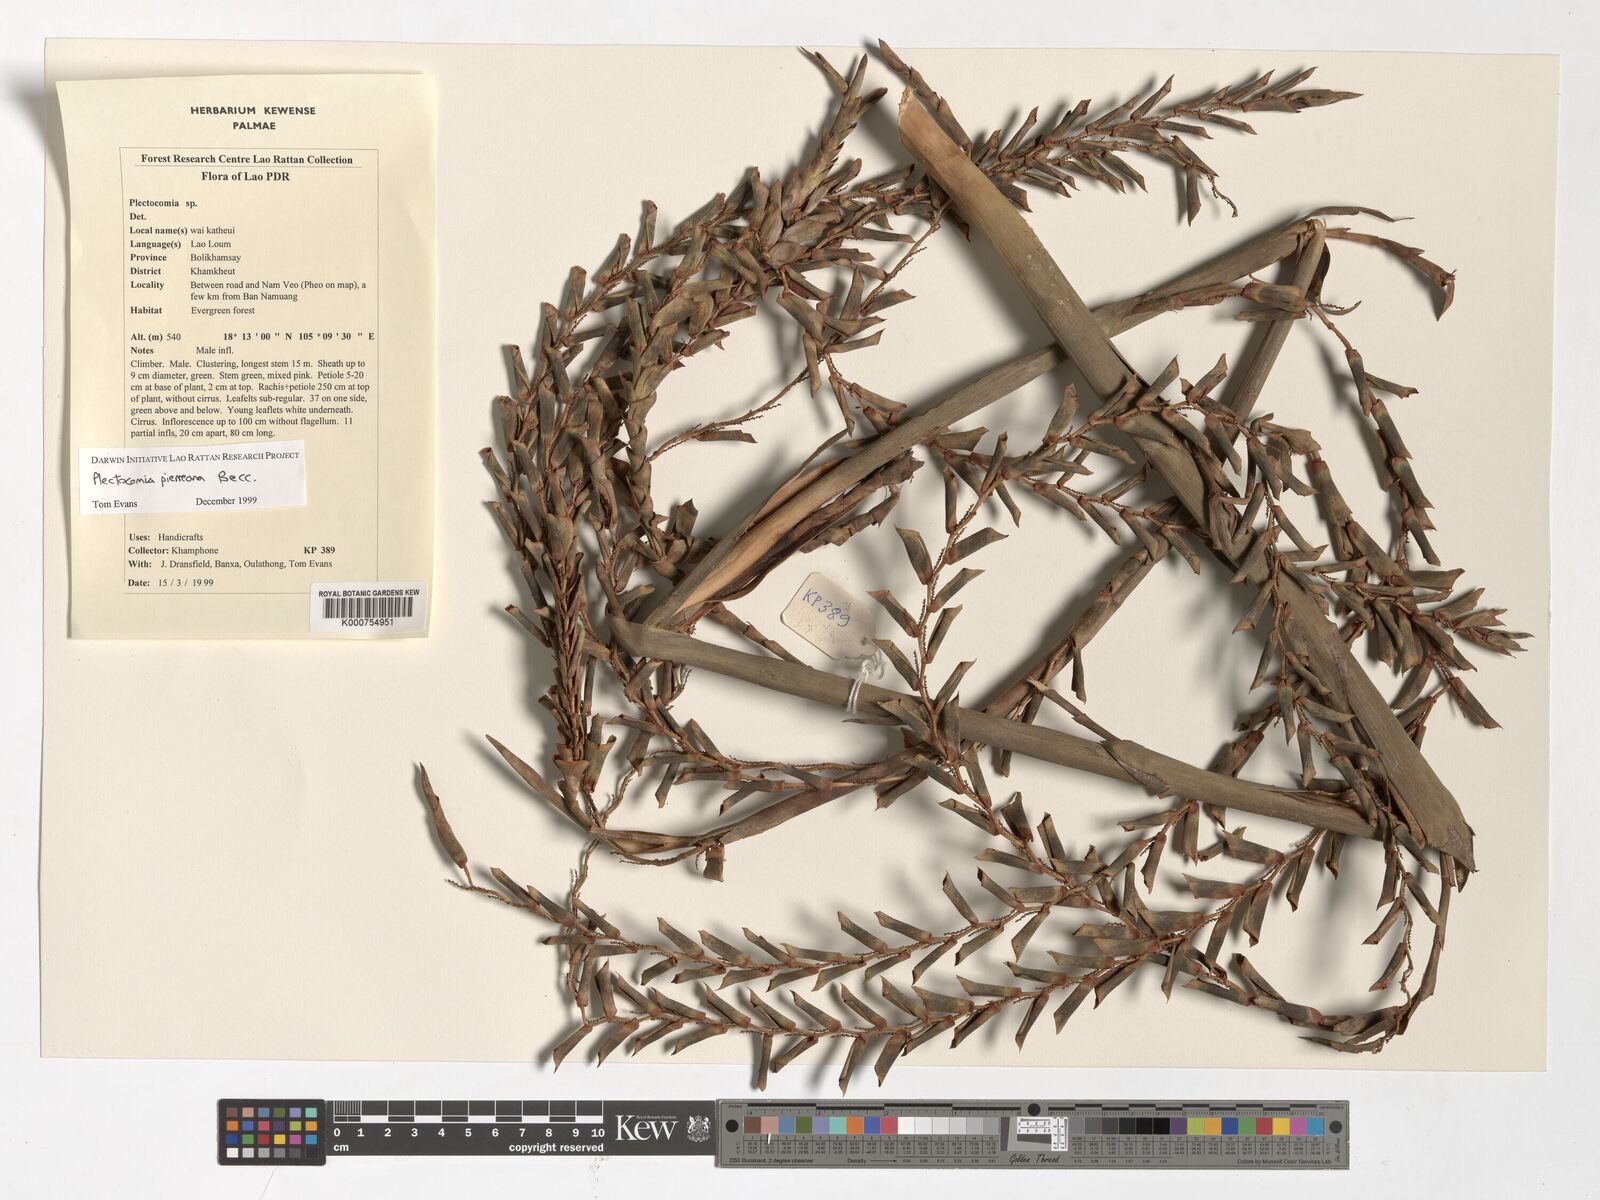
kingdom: Plantae
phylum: Tracheophyta
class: Liliopsida
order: Arecales
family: Arecaceae
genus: Plectocomia
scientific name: Plectocomia pierreana
